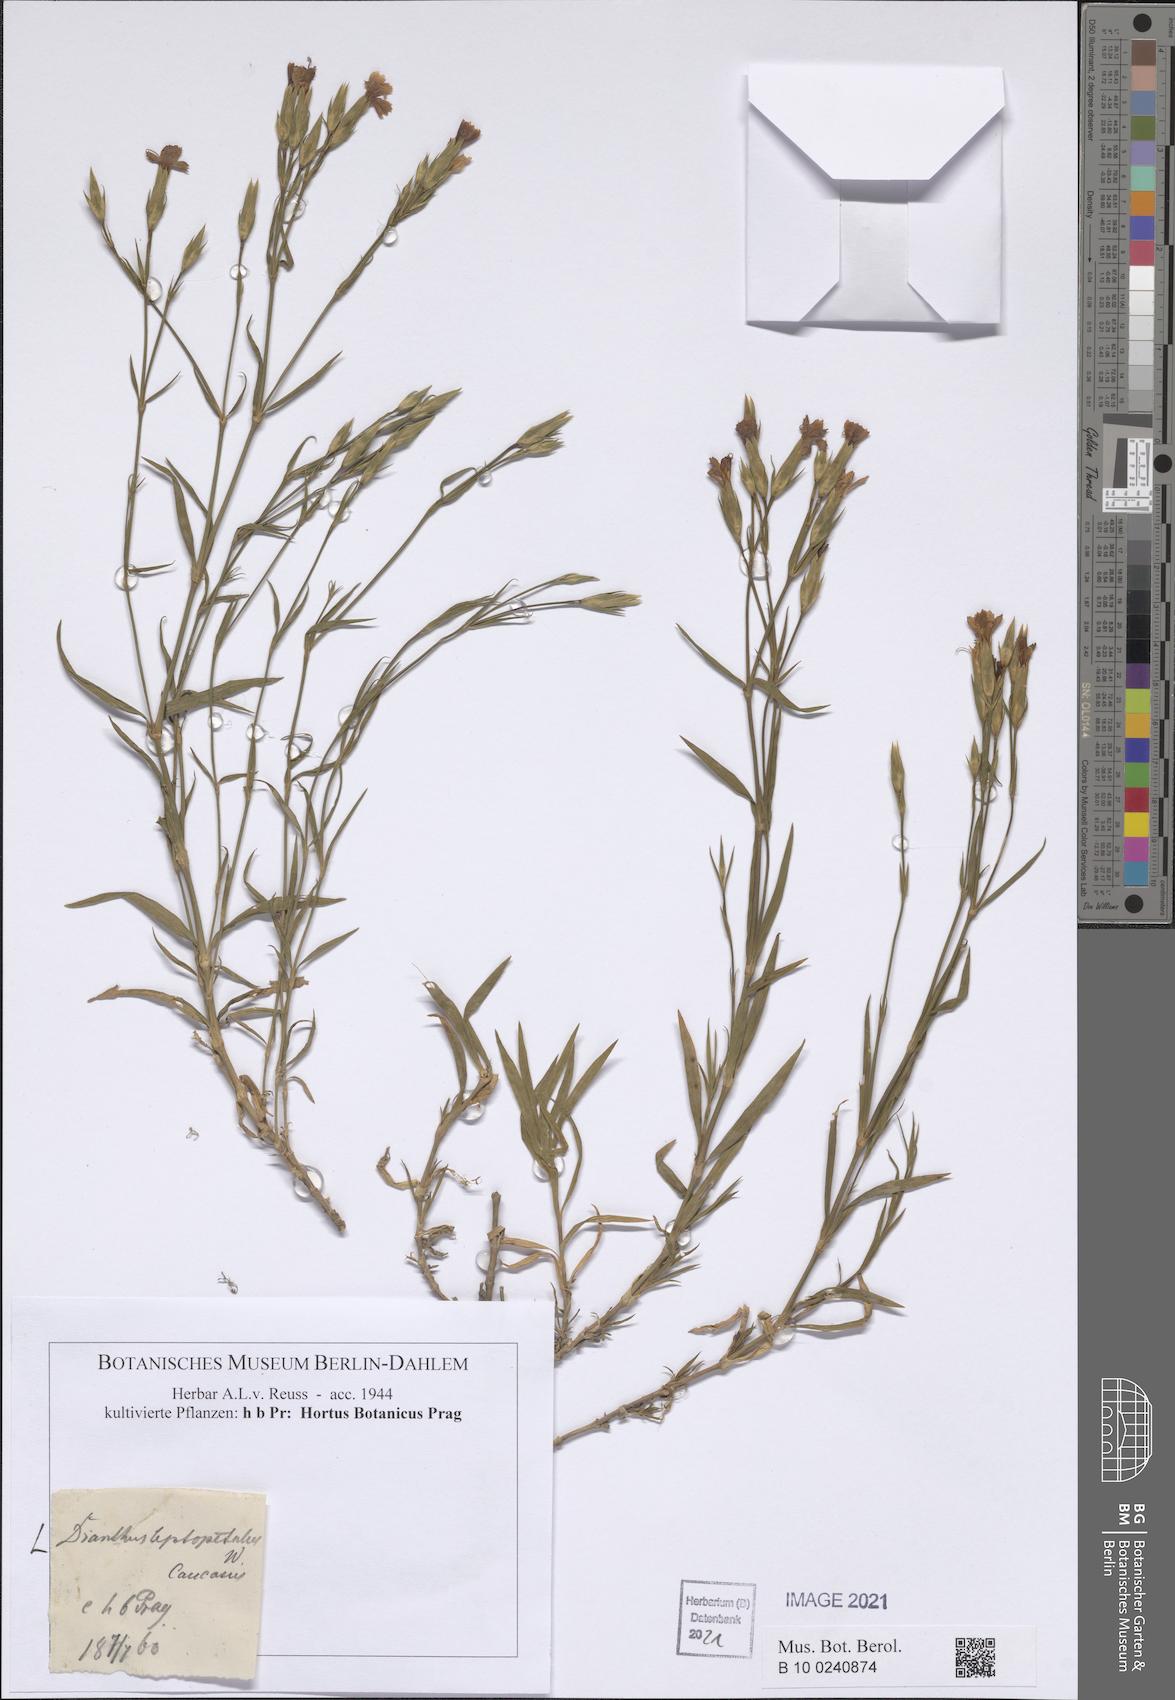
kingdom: Plantae
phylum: Tracheophyta
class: Magnoliopsida
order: Caryophyllales
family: Caryophyllaceae
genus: Dianthus
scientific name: Dianthus leptopetalus
